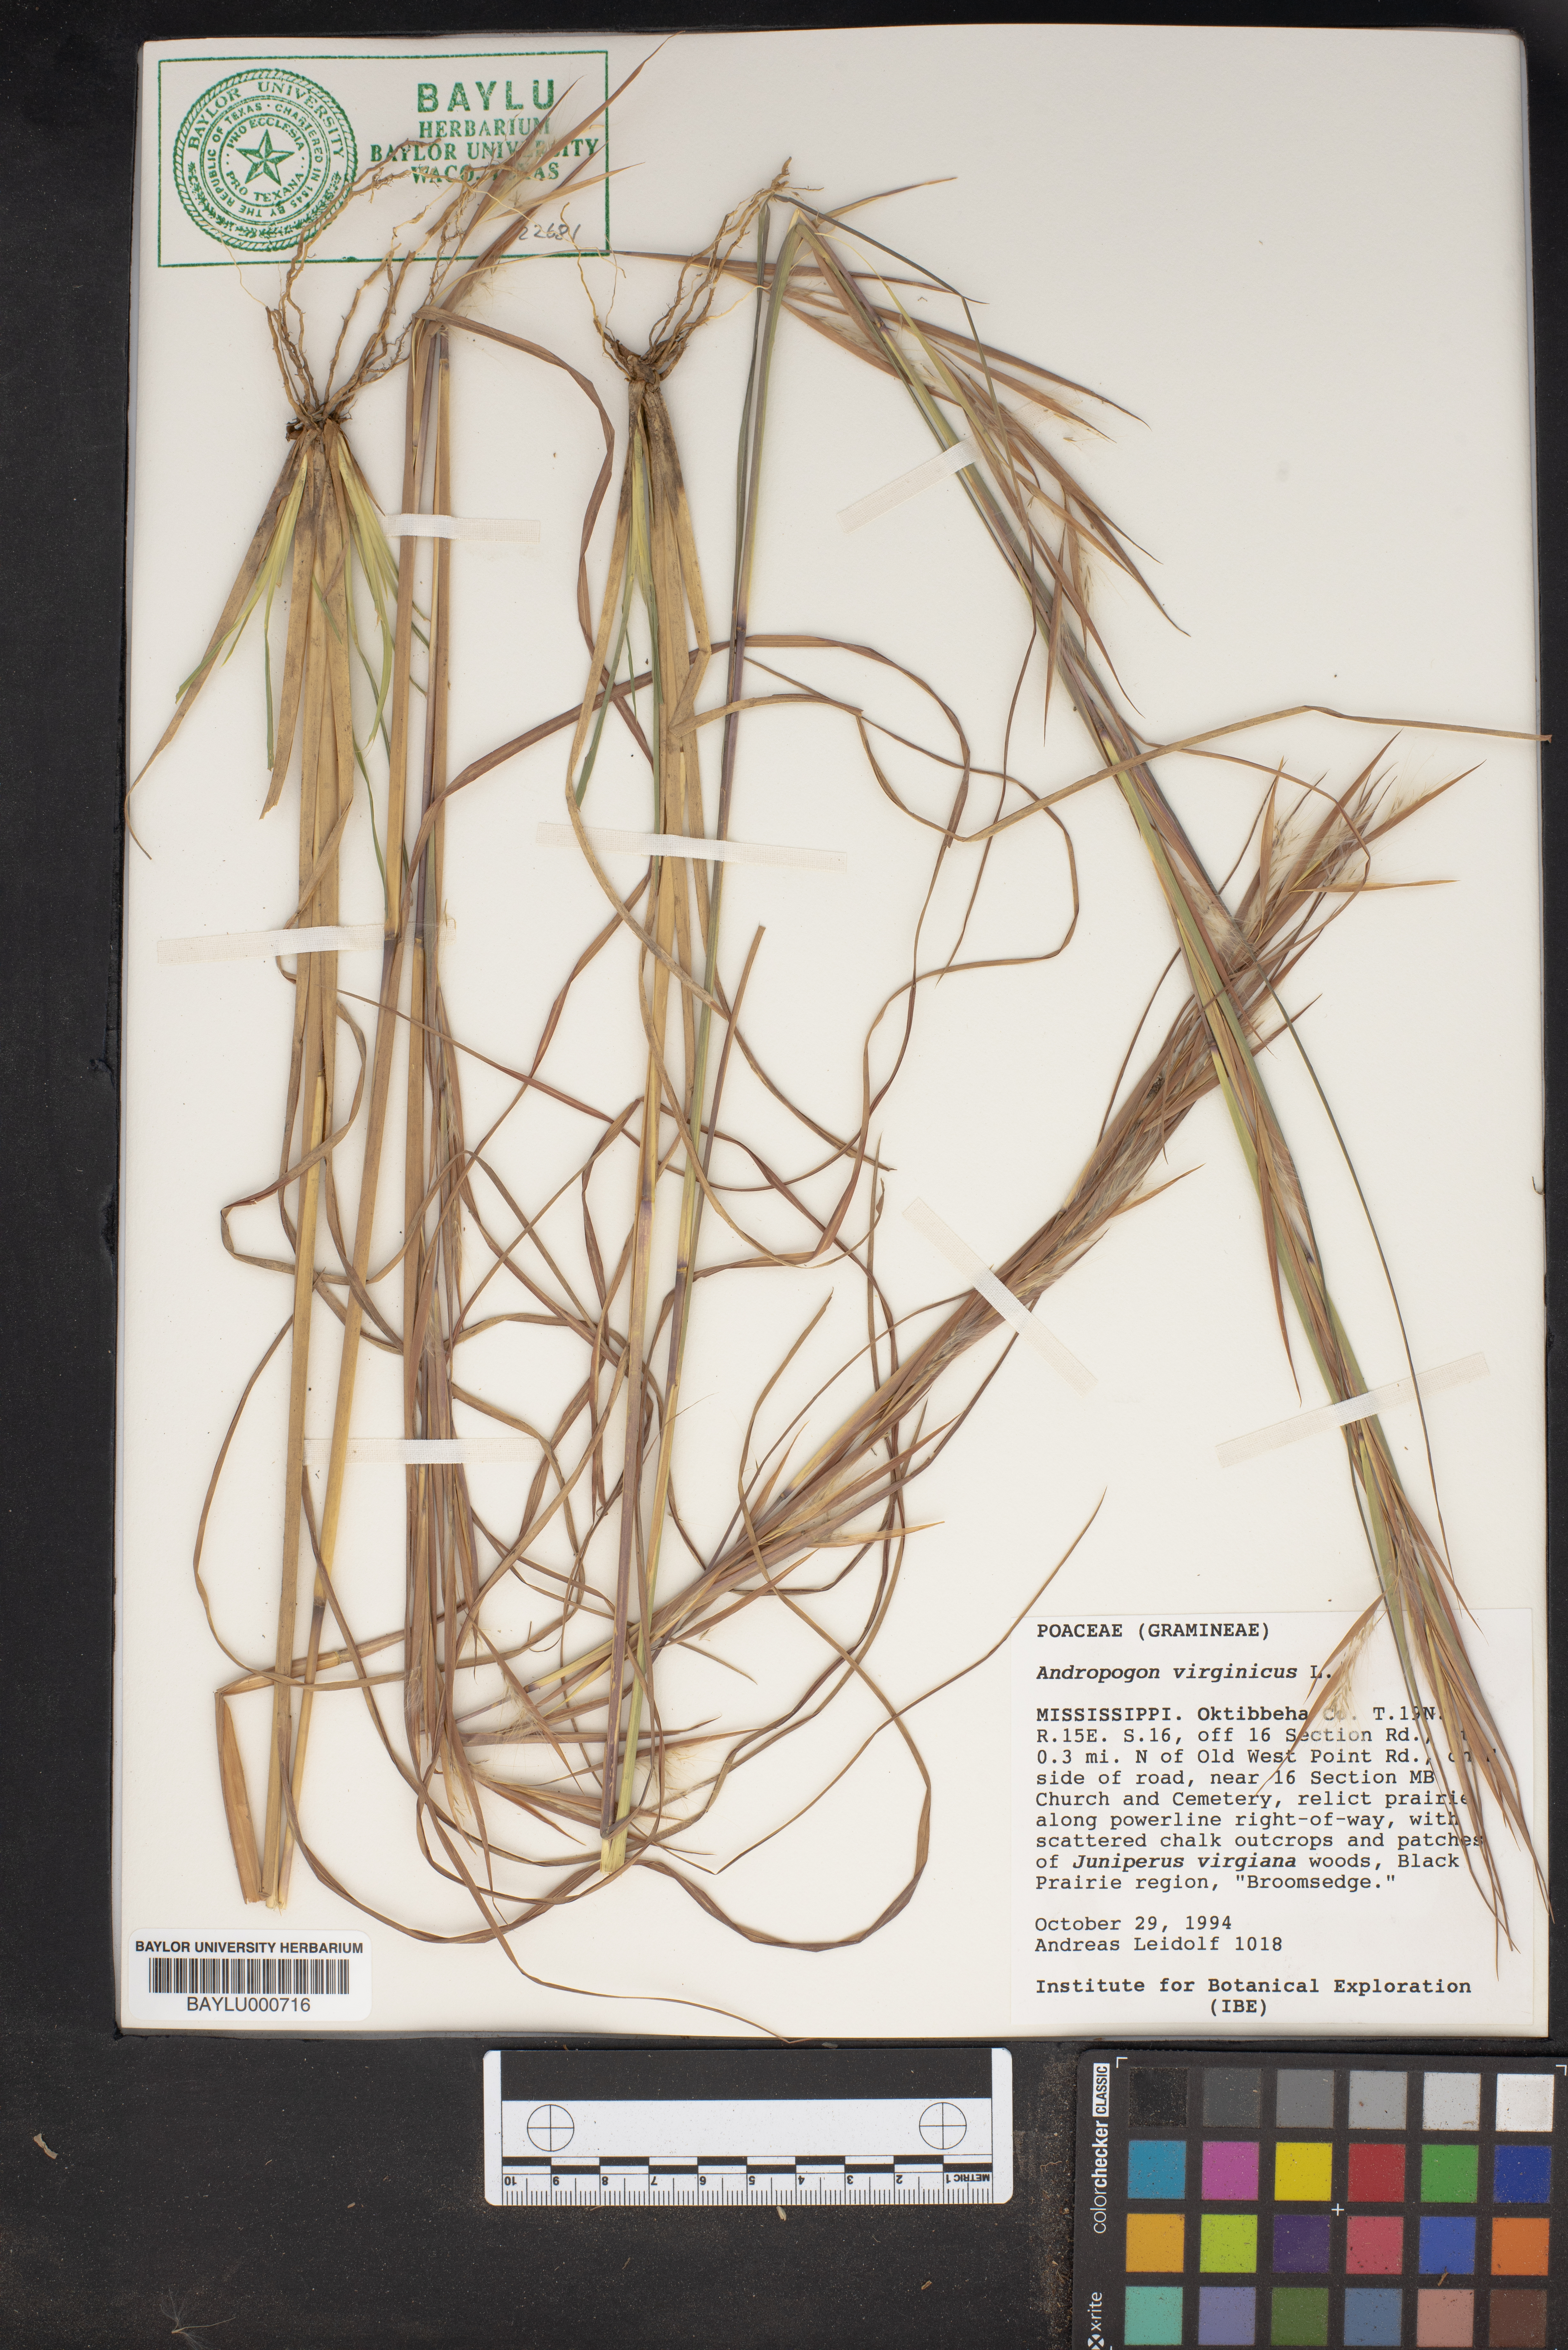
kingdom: Plantae
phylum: Tracheophyta
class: Liliopsida
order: Poales
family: Poaceae
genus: Andropogon
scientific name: Andropogon virginicus
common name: Broomsedge bluestem
